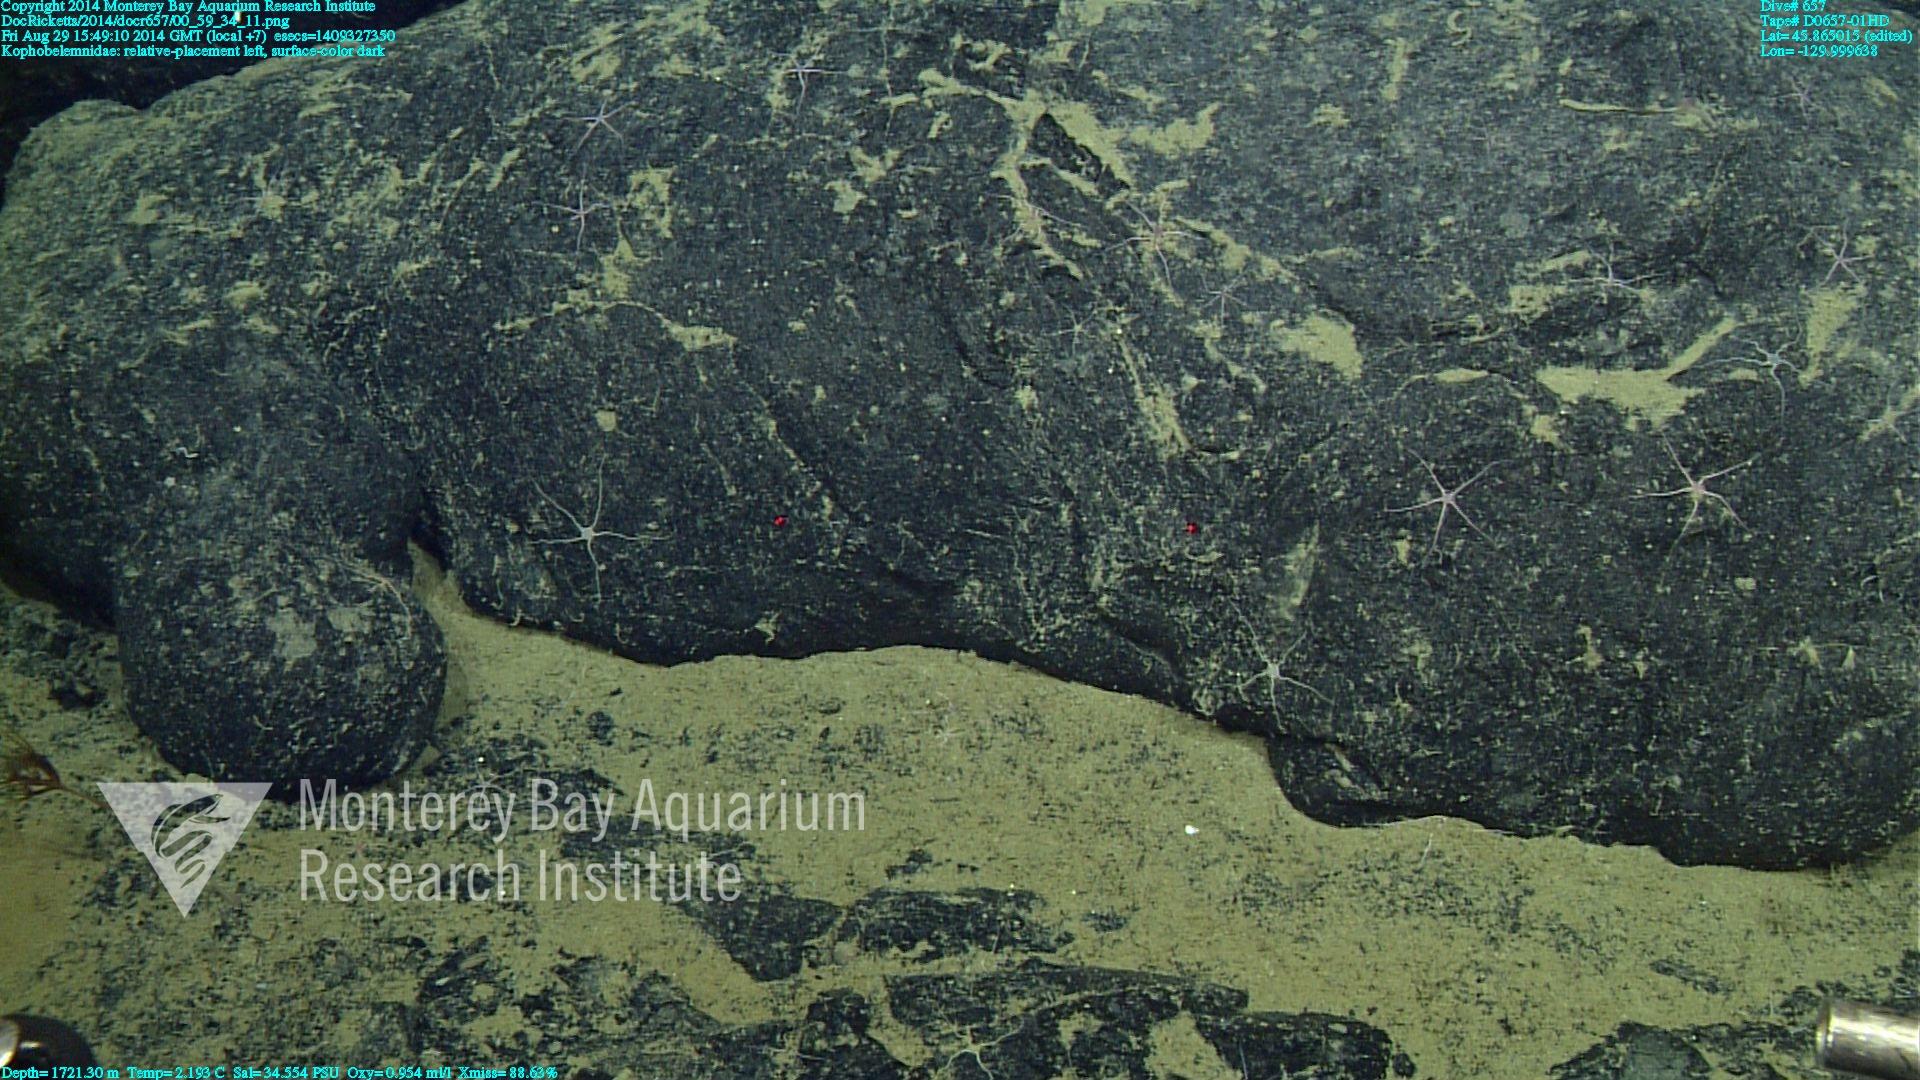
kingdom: Animalia
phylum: Cnidaria
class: Anthozoa
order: Scleralcyonacea
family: Kophobelemnidae
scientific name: Kophobelemnidae
